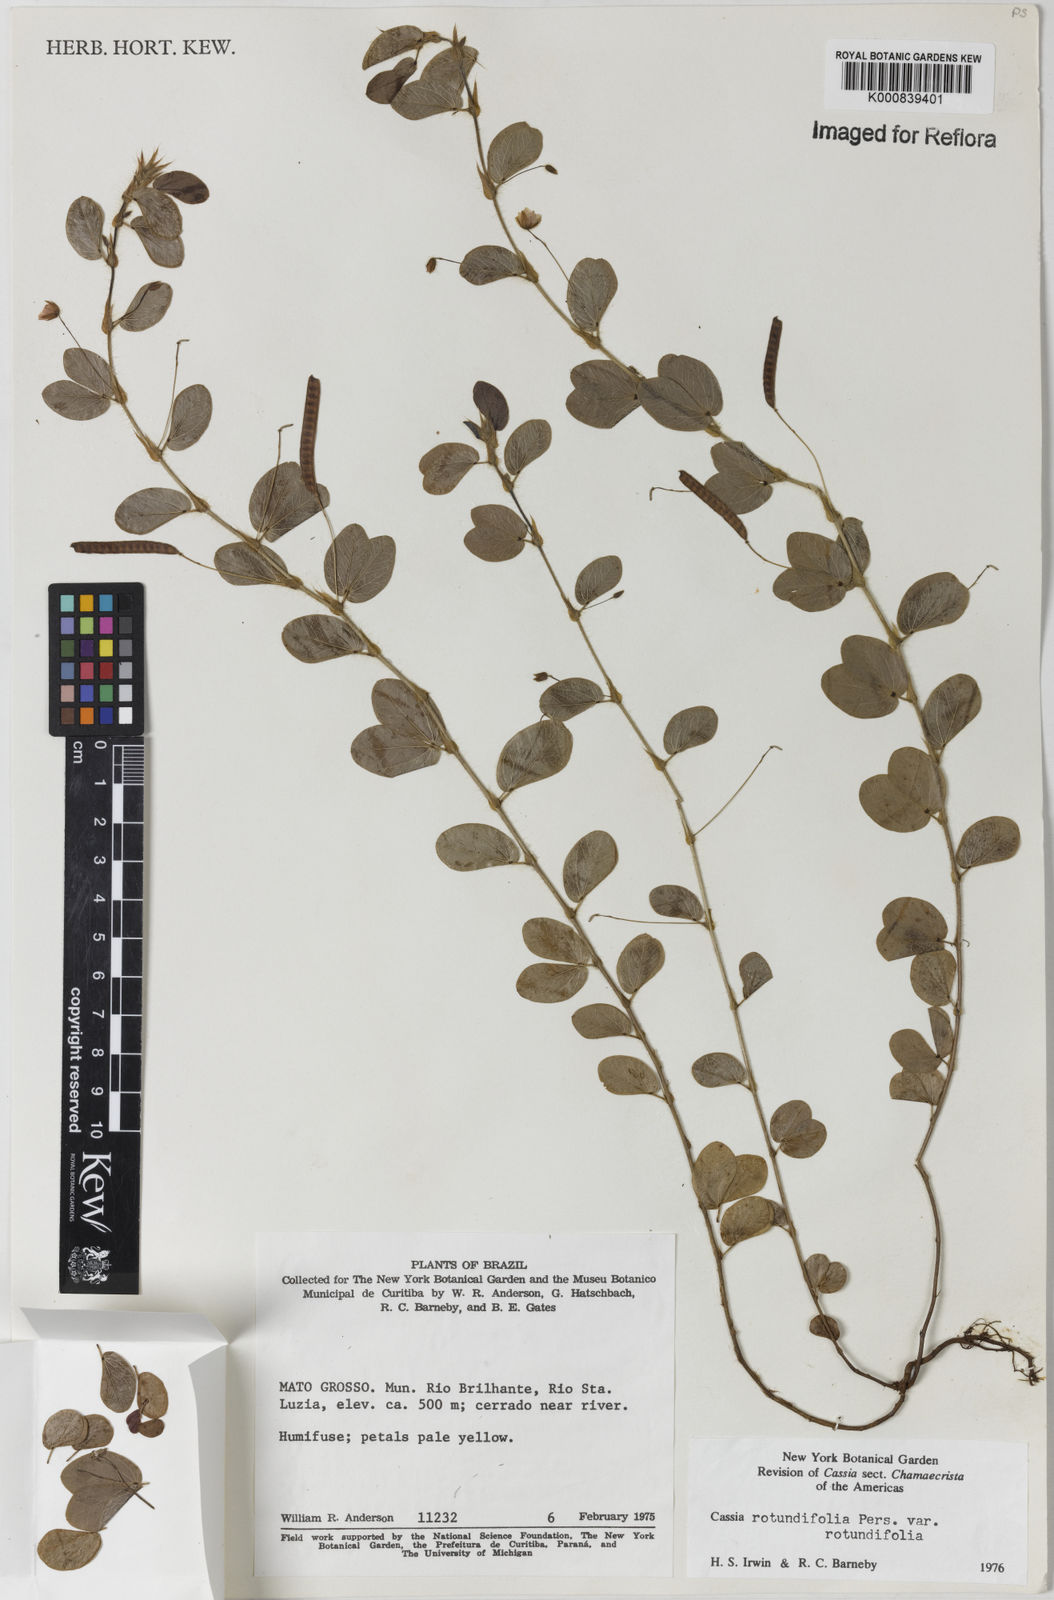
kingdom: Plantae
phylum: Tracheophyta
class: Magnoliopsida
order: Fabales
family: Fabaceae
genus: Chamaecrista
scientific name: Chamaecrista rotundifolia
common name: Round-leaf cassia
